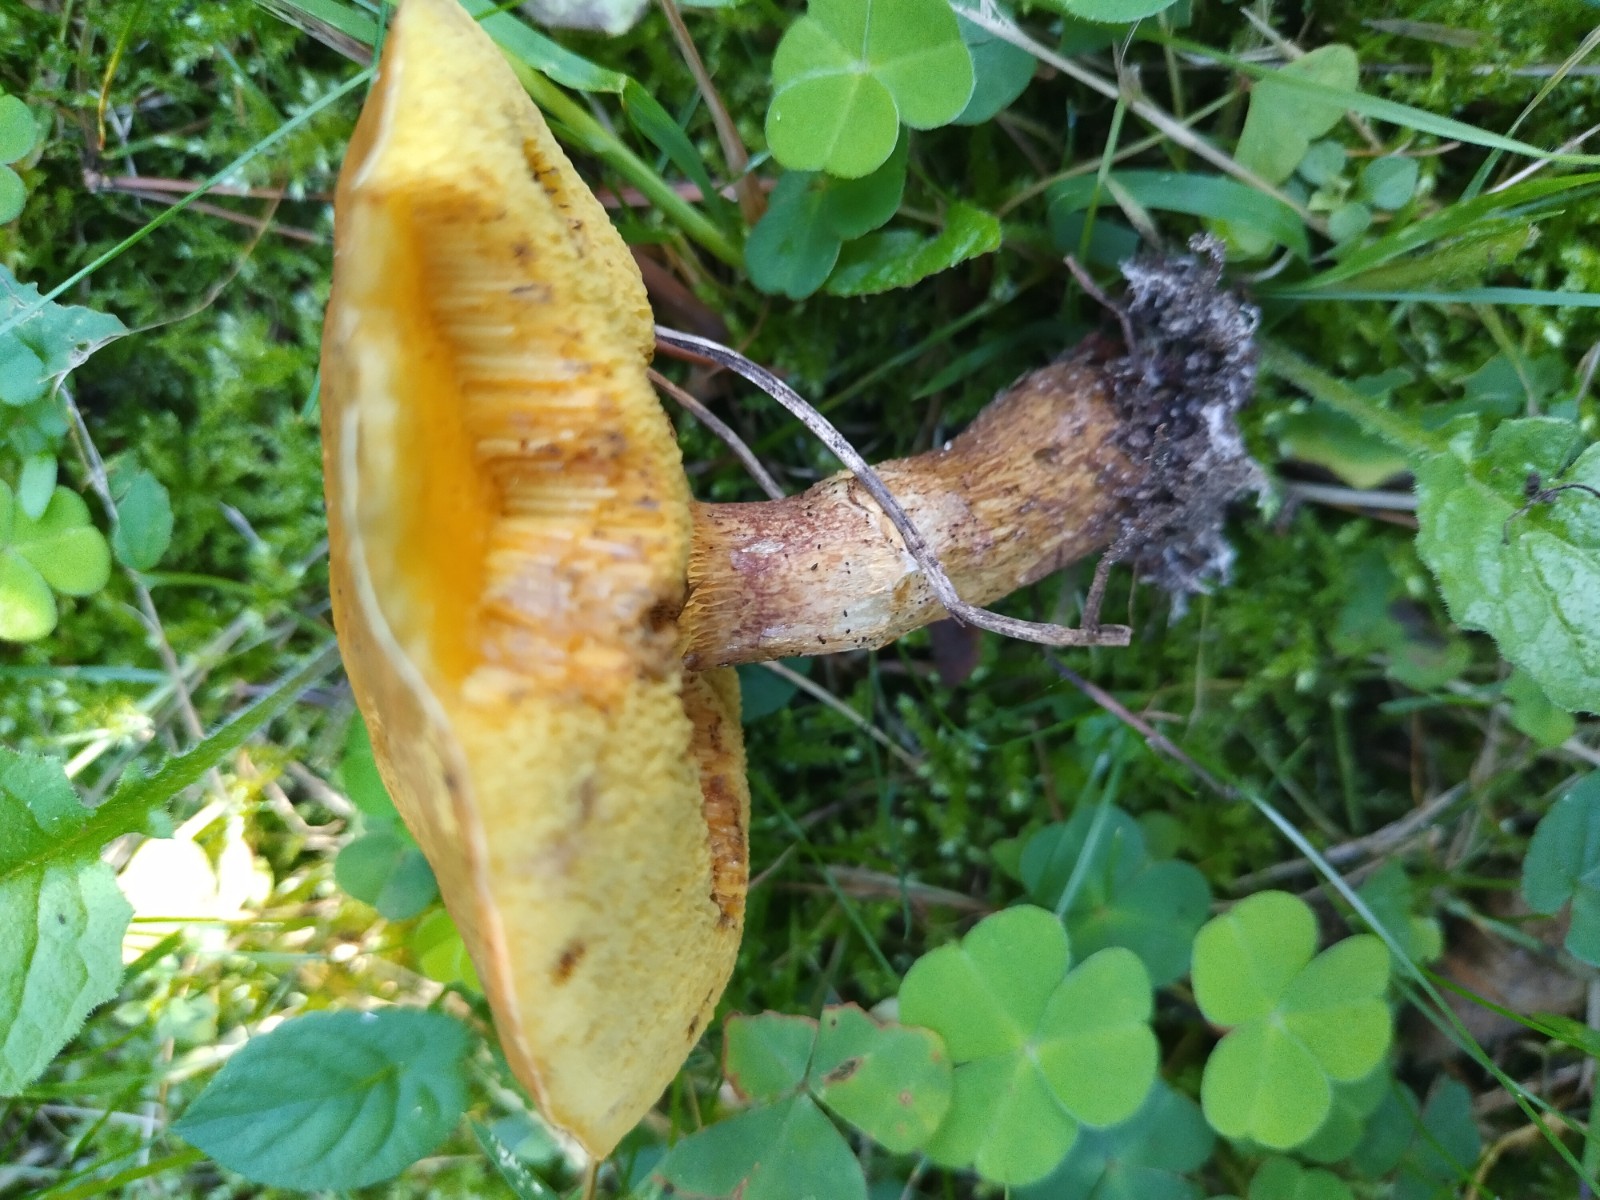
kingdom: Fungi
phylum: Basidiomycota
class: Agaricomycetes
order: Boletales
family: Suillaceae
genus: Suillus
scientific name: Suillus grevillei
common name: lærke-slimrørhat
